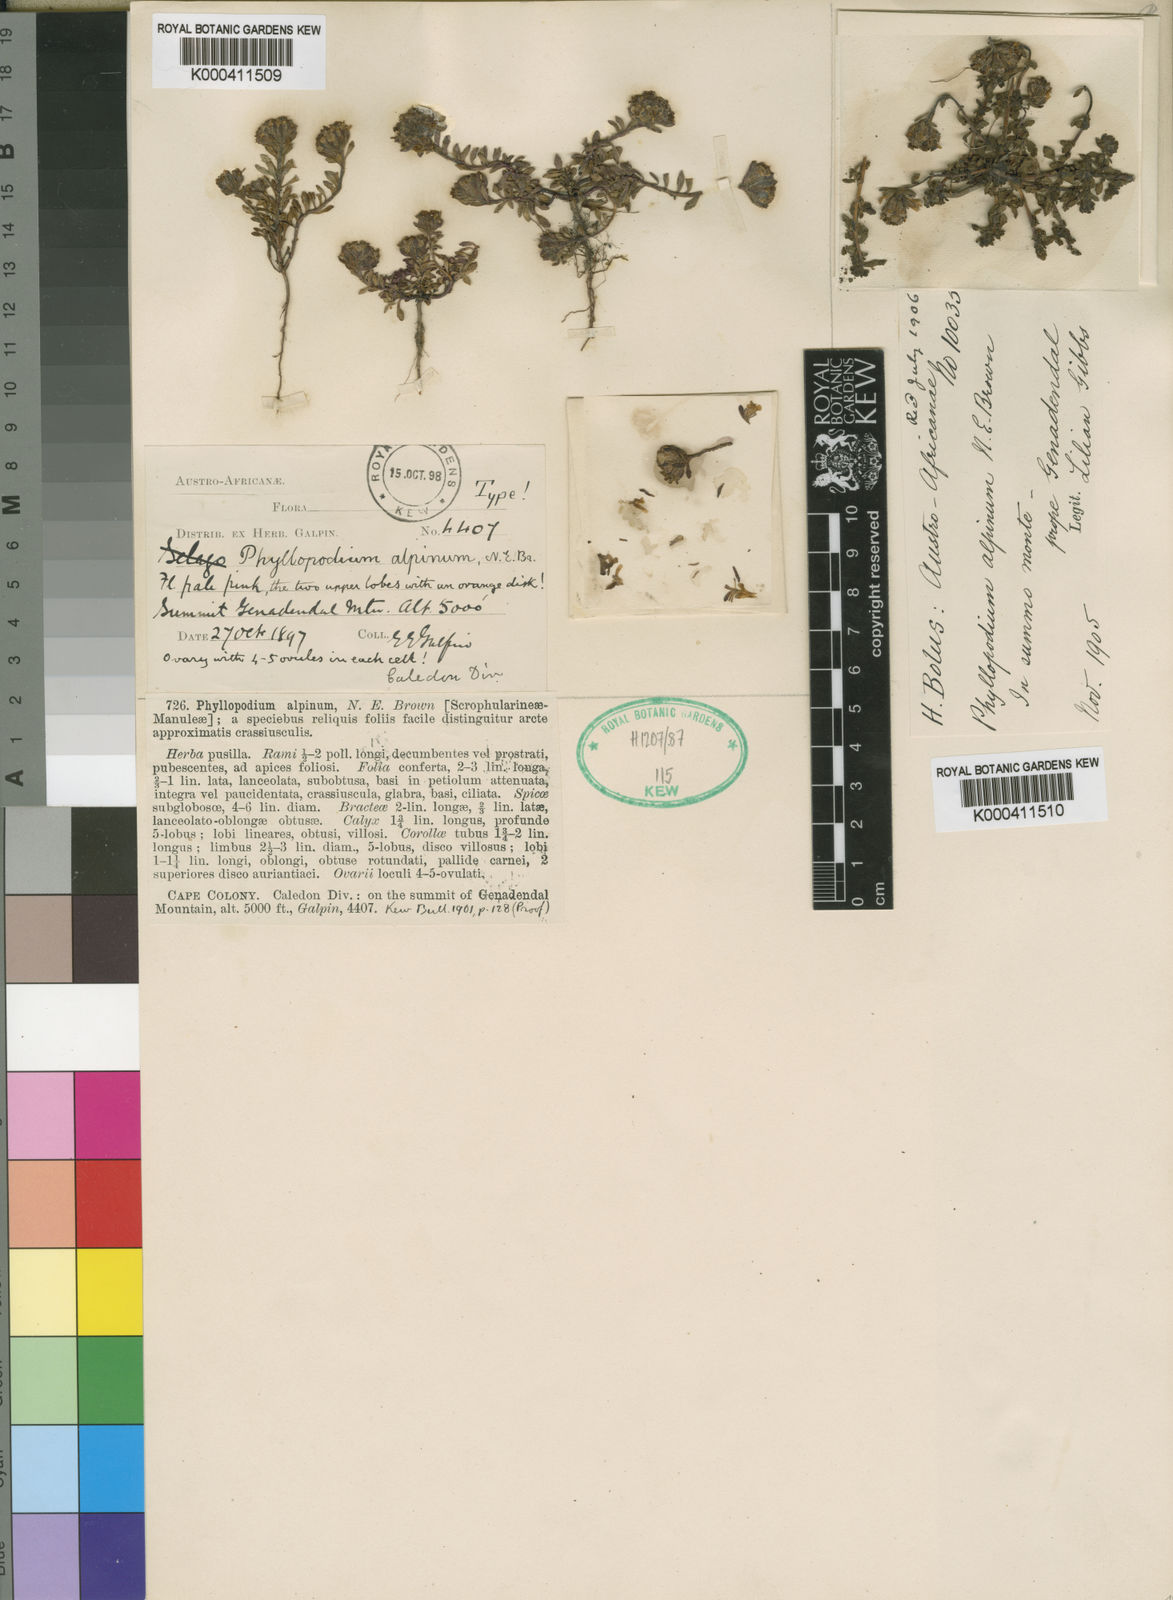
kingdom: Plantae
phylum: Tracheophyta
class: Magnoliopsida
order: Lamiales
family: Scrophulariaceae
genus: Phyllopodium
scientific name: Phyllopodium alpinum
